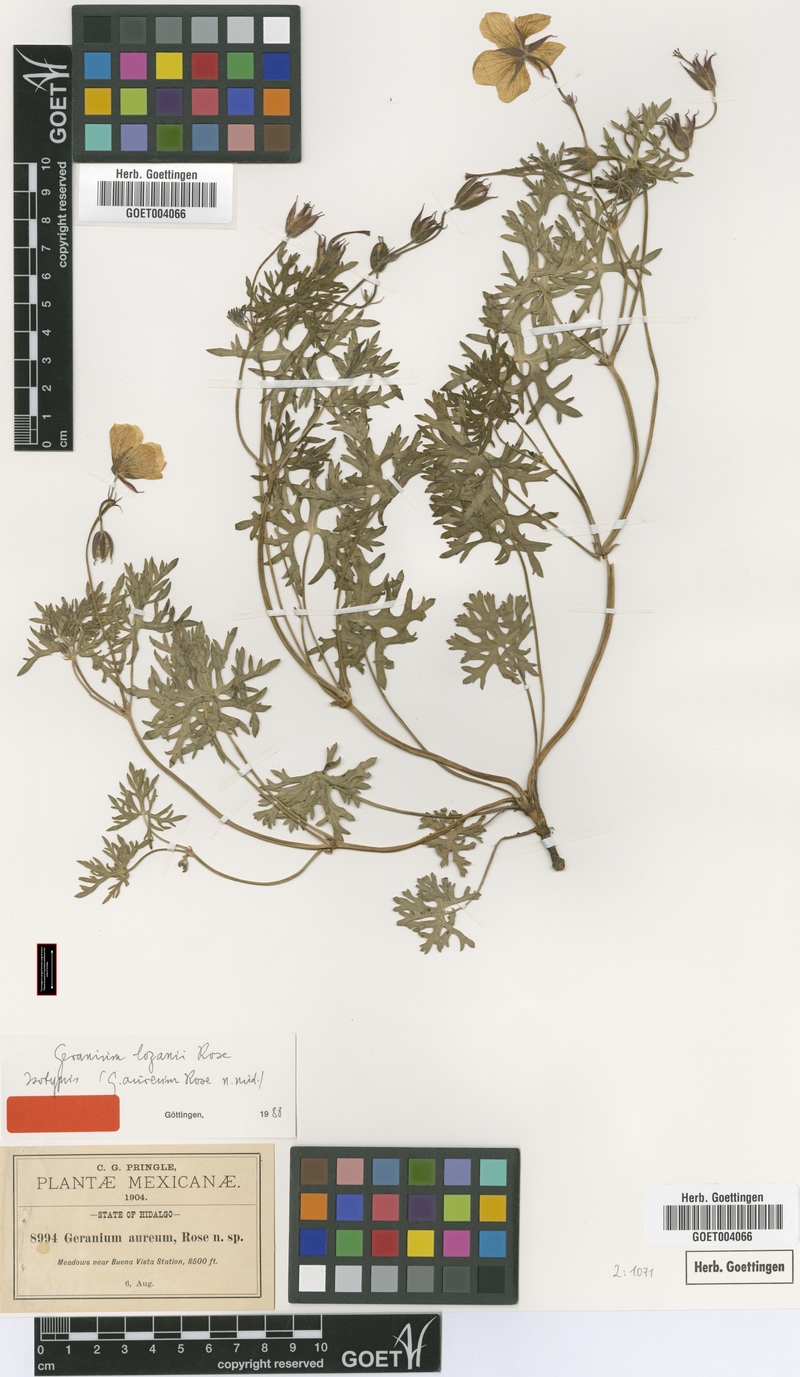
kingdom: Plantae
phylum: Tracheophyta
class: Magnoliopsida
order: Geraniales
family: Geraniaceae
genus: Geranium
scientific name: Geranium lozanii
